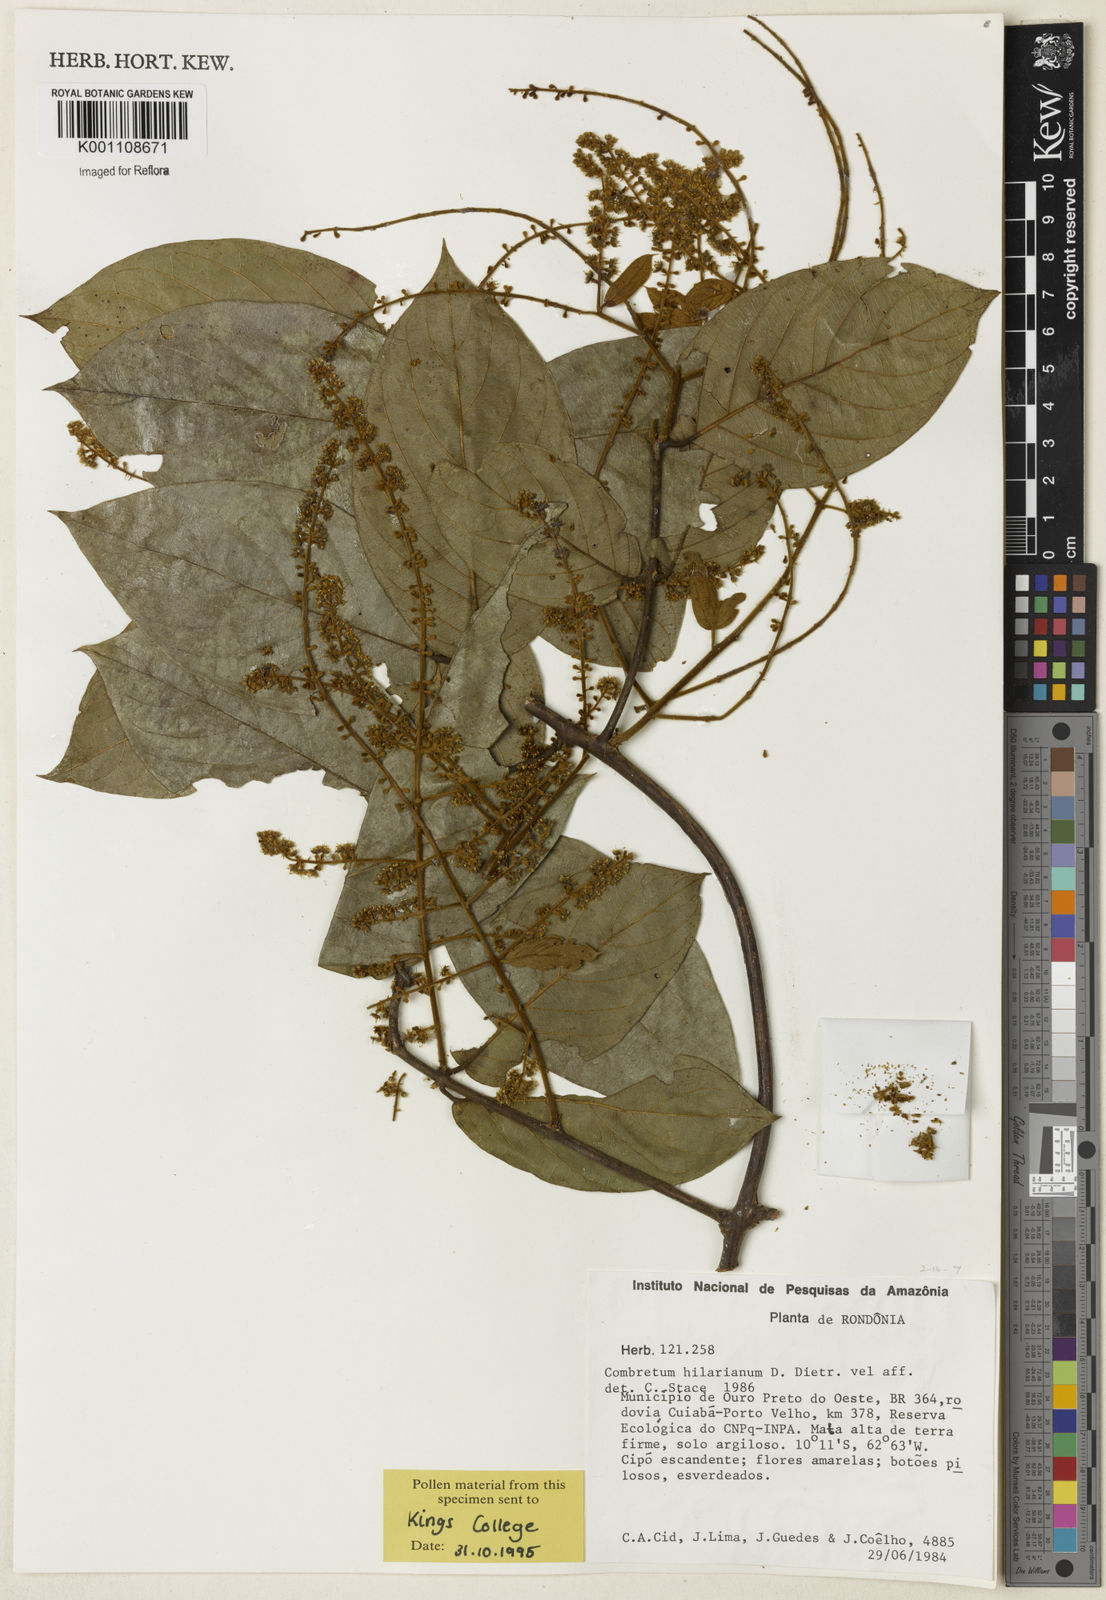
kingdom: Plantae
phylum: Tracheophyta
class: Magnoliopsida
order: Myrtales
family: Combretaceae
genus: Combretum
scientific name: Combretum hilarianum
